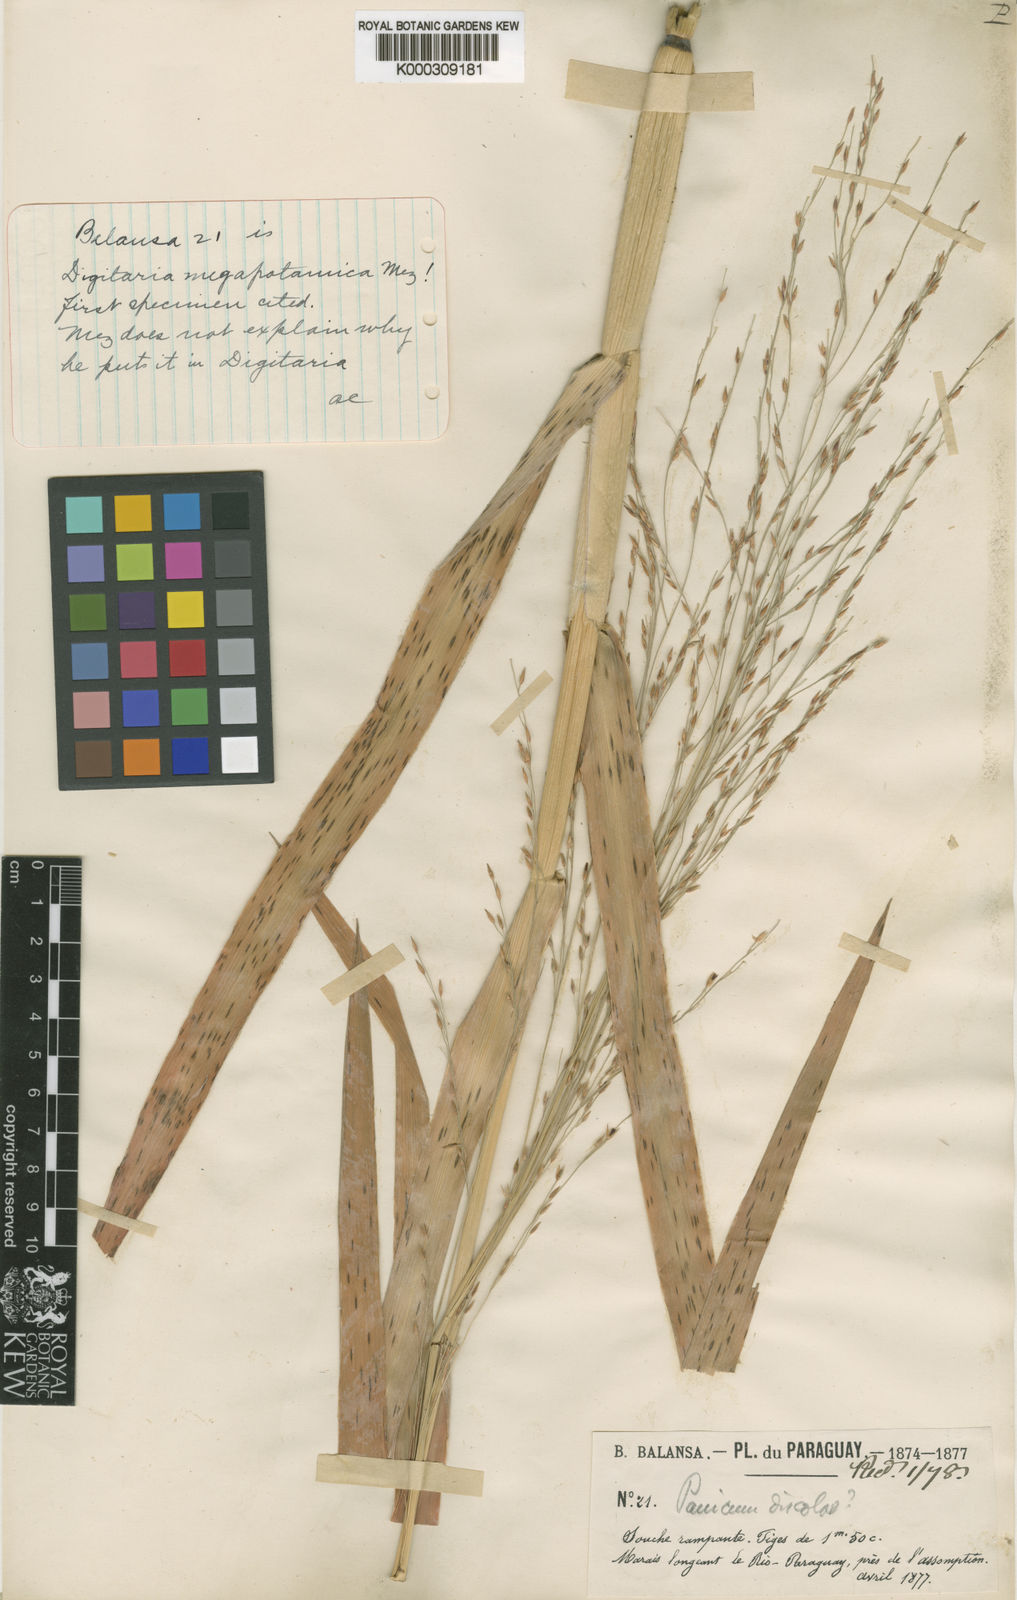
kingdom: Plantae
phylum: Tracheophyta
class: Liliopsida
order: Poales
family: Poaceae
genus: Louisiella
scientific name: Louisiella elephantipes
